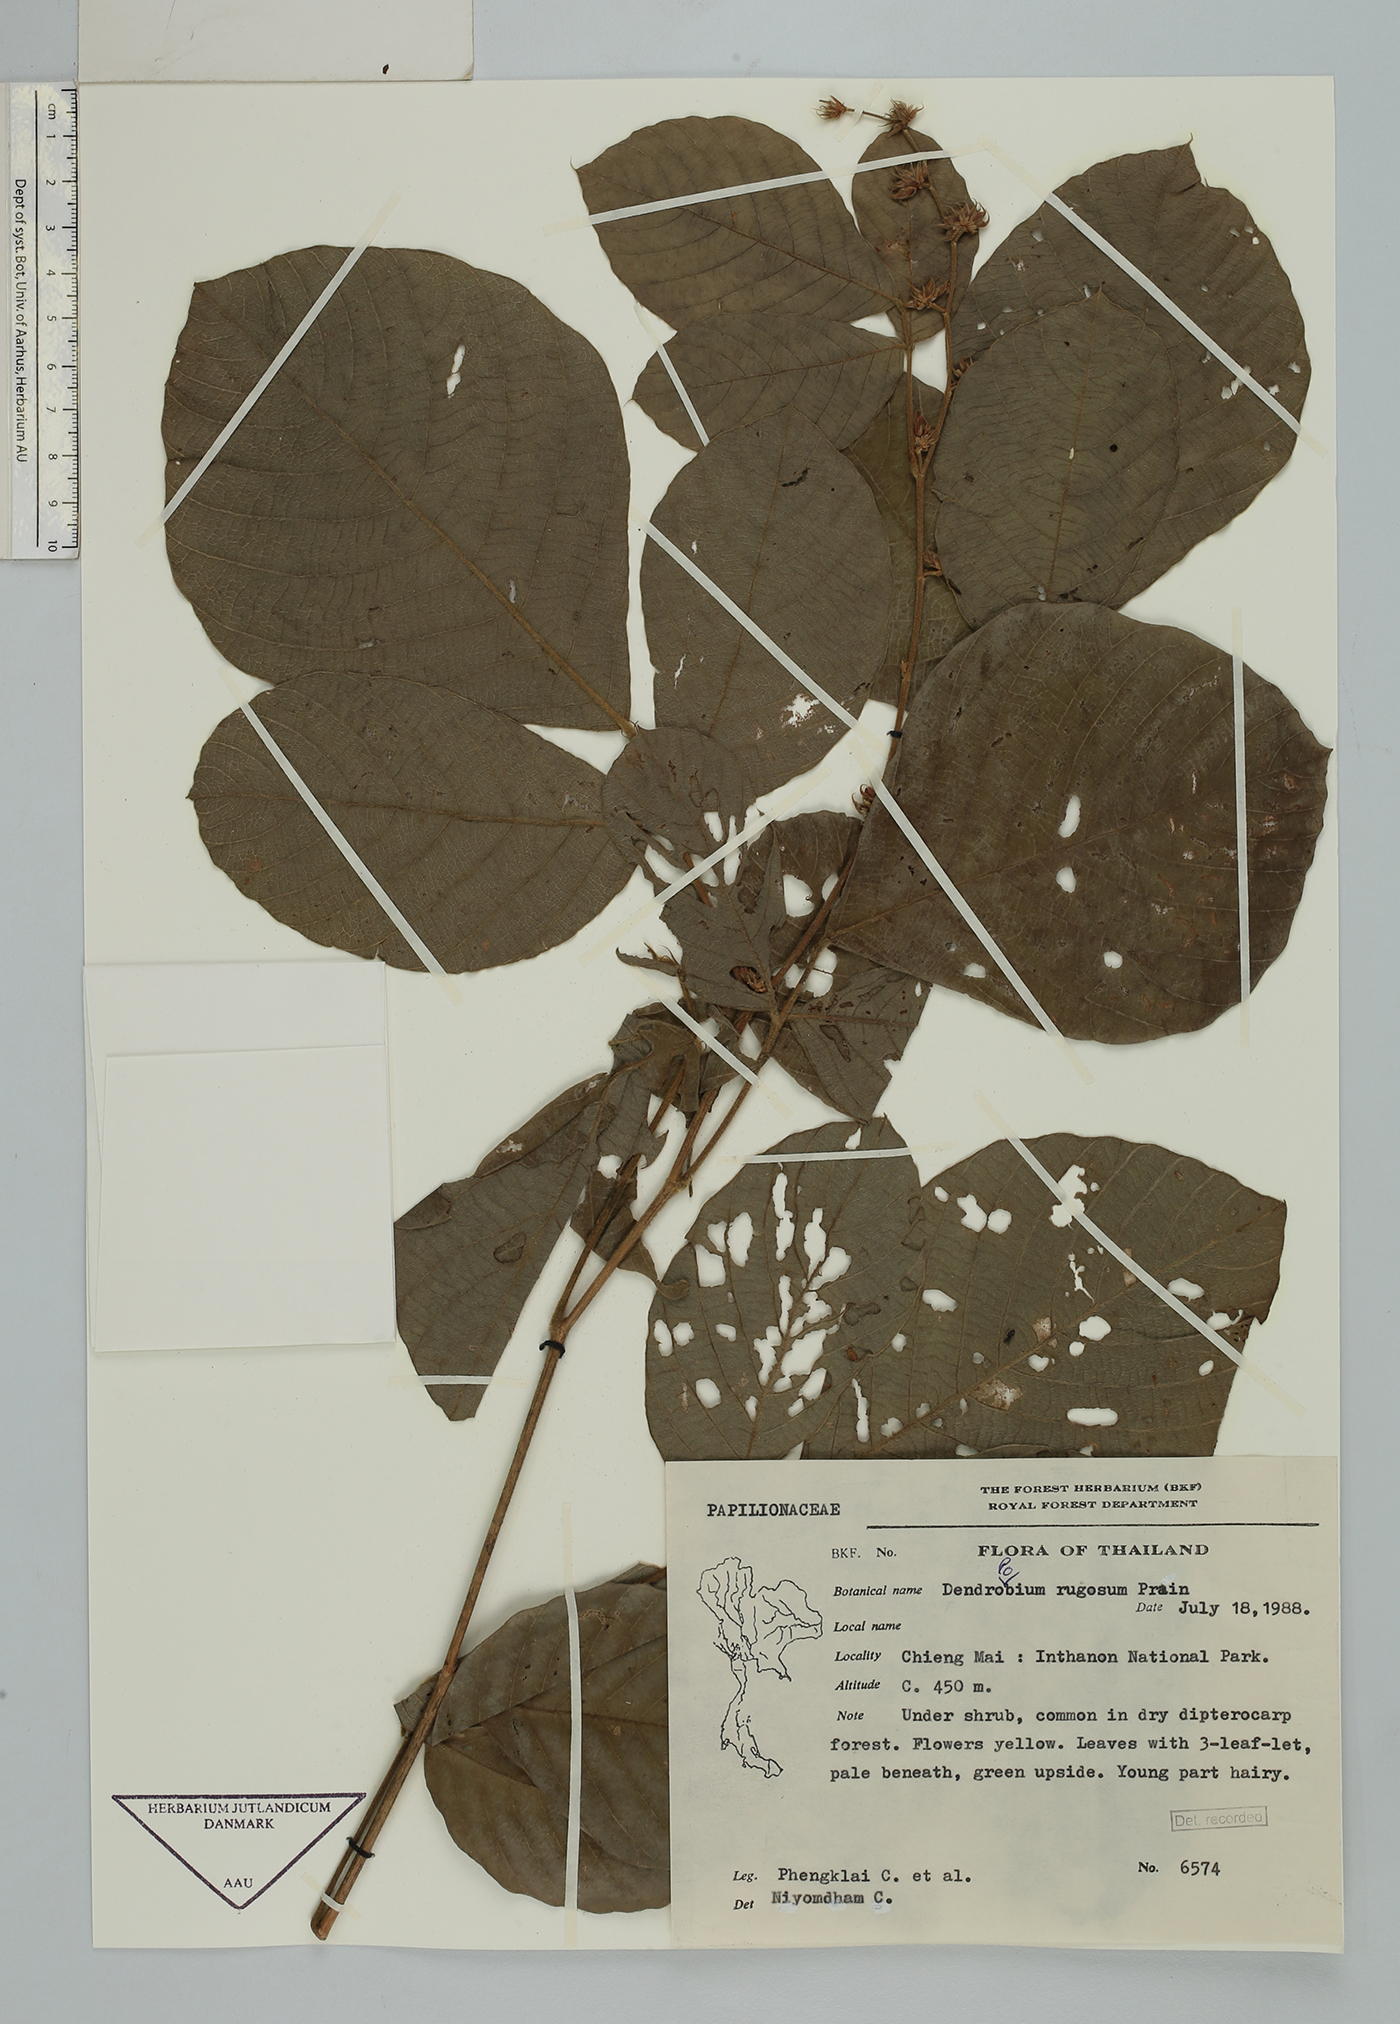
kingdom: Plantae
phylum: Tracheophyta
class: Magnoliopsida
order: Fabales
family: Fabaceae
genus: Dendrolobium
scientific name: Dendrolobium rugosum
